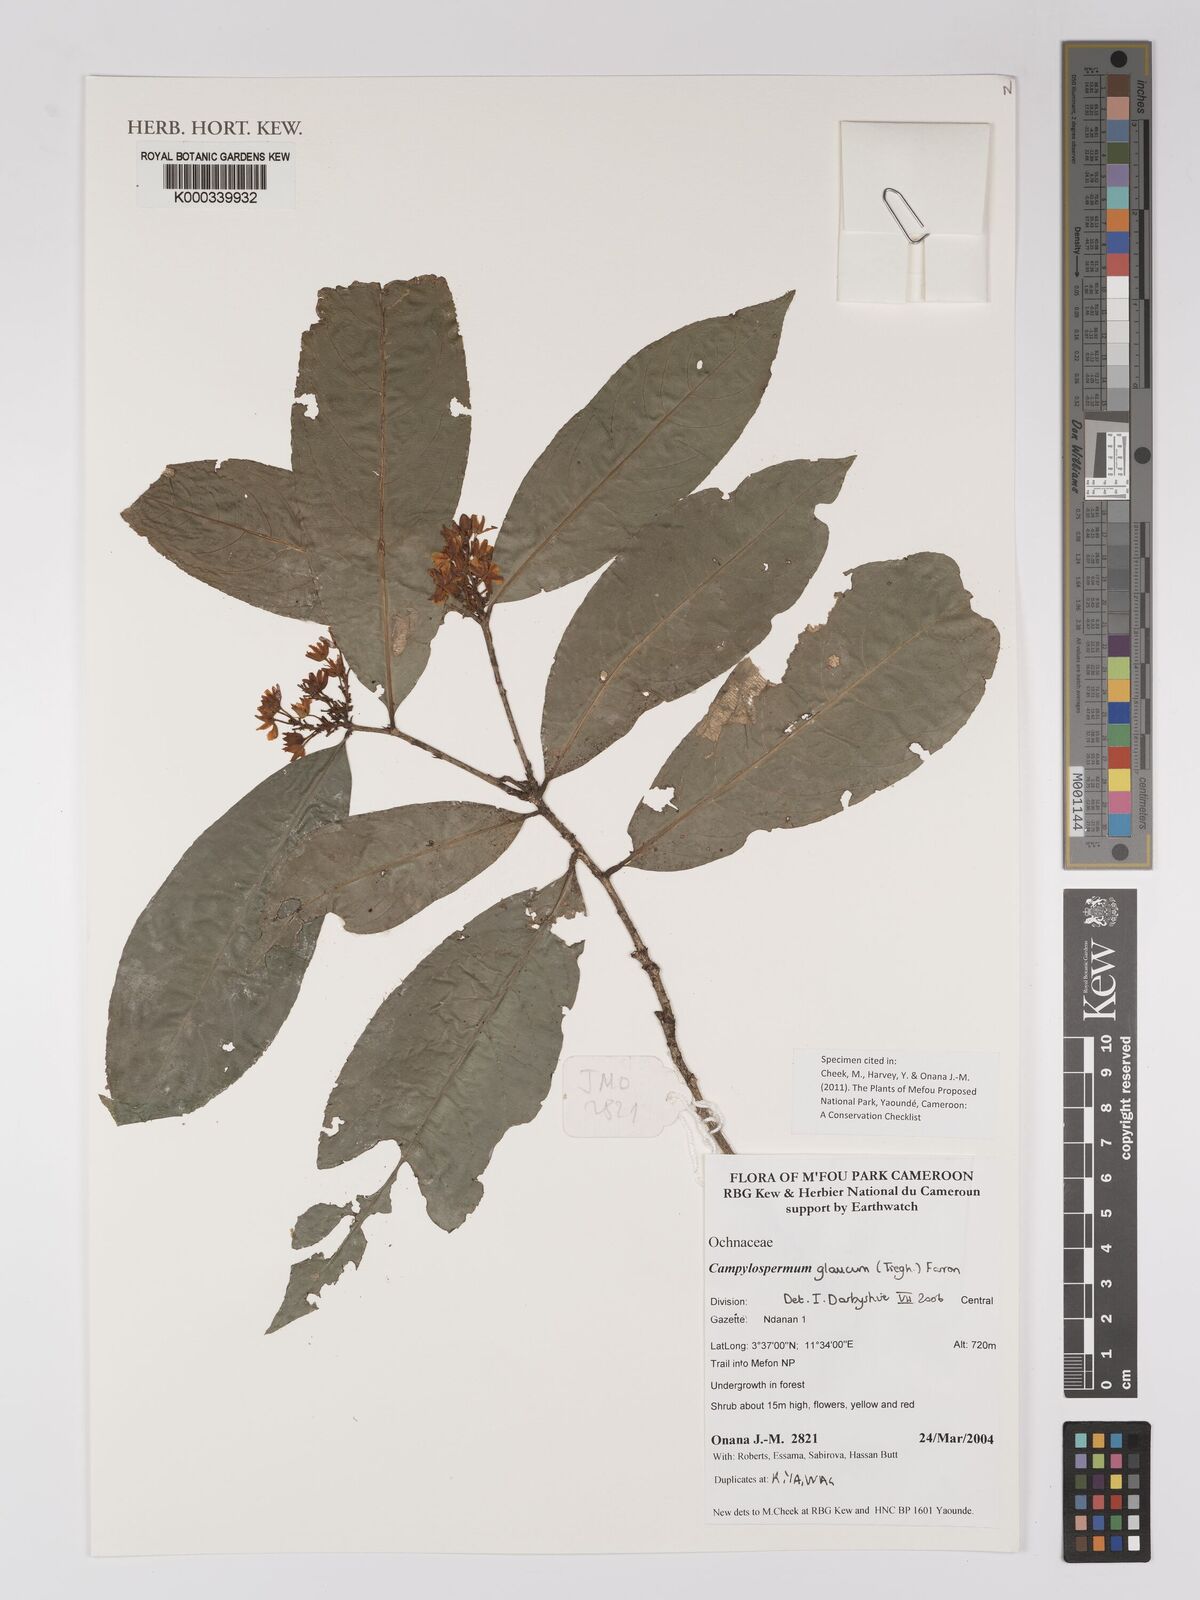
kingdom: Plantae
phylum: Tracheophyta
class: Magnoliopsida
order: Malpighiales
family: Ochnaceae
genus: Campylospermum
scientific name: Campylospermum glaucum
